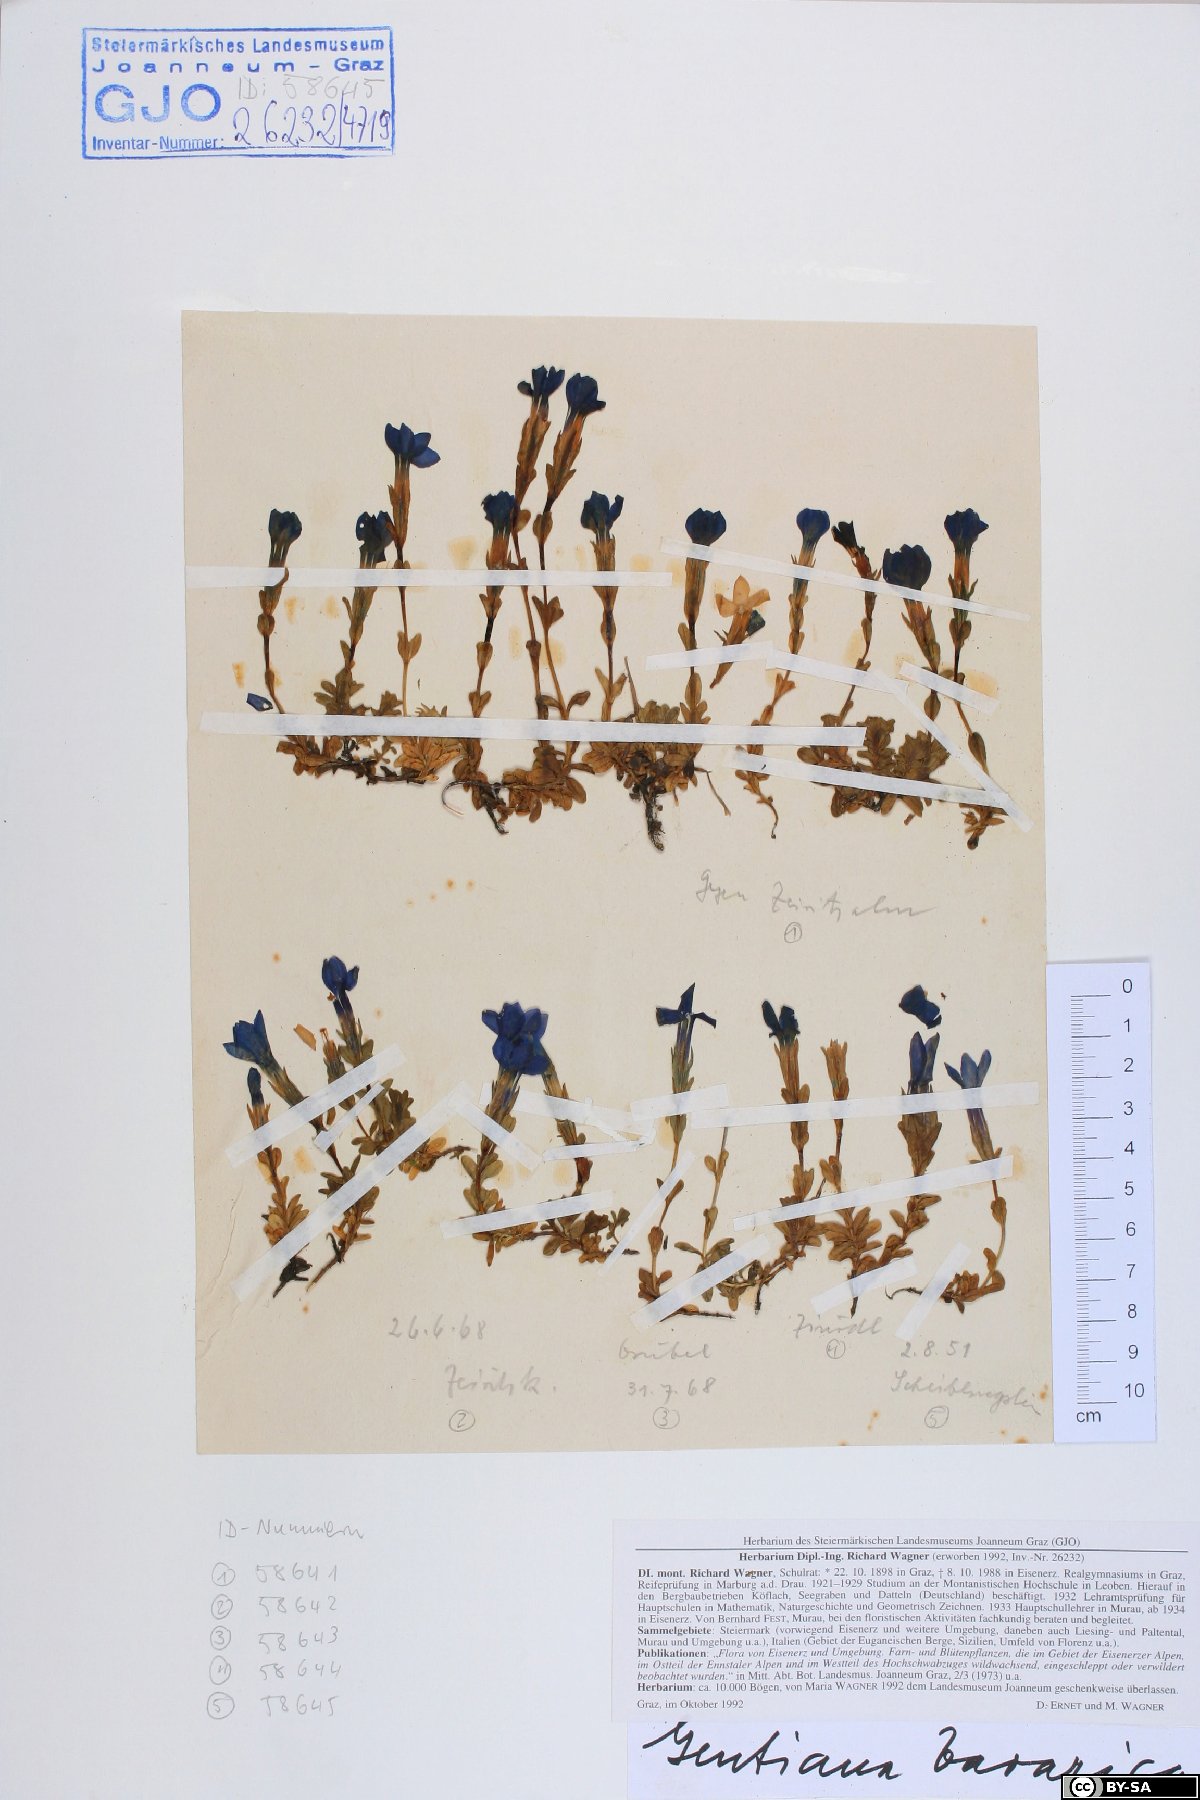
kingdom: Plantae
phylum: Tracheophyta
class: Magnoliopsida
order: Gentianales
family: Gentianaceae
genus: Gentiana
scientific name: Gentiana bavarica
